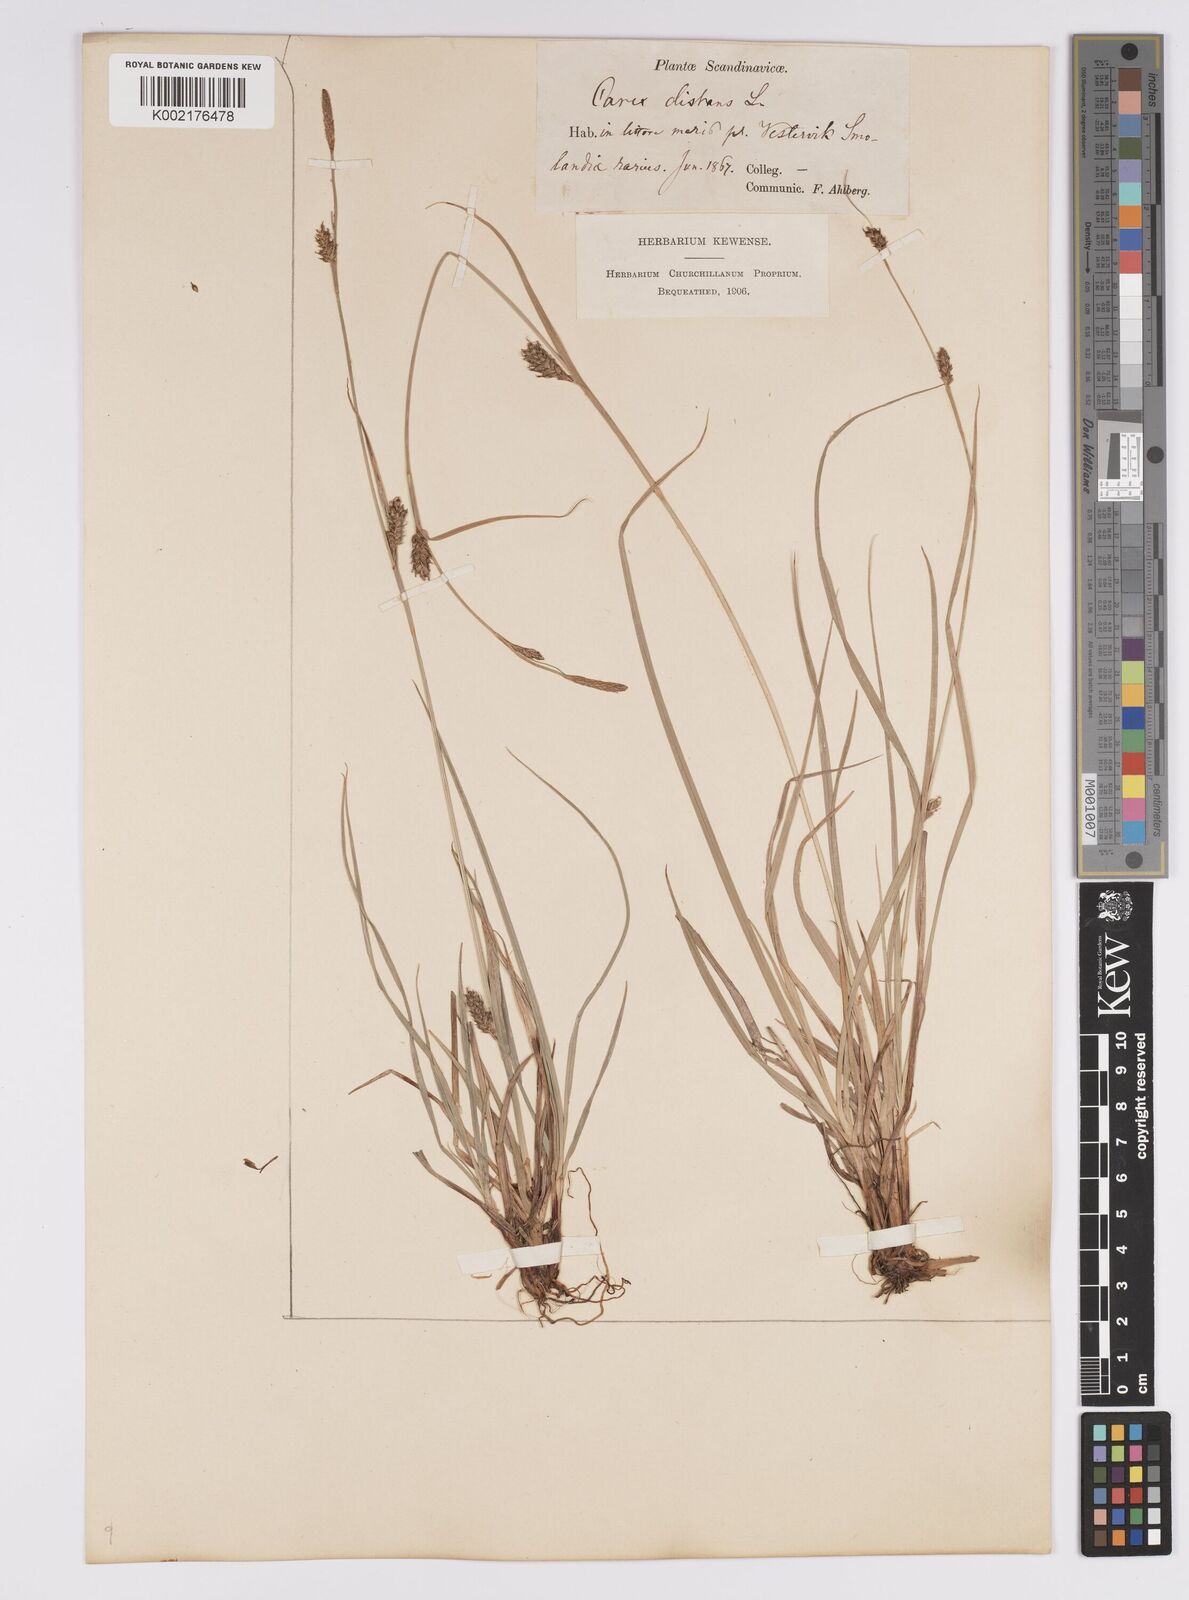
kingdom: Plantae
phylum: Tracheophyta
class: Liliopsida
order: Poales
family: Cyperaceae
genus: Carex
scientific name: Carex distans
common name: Distant sedge
